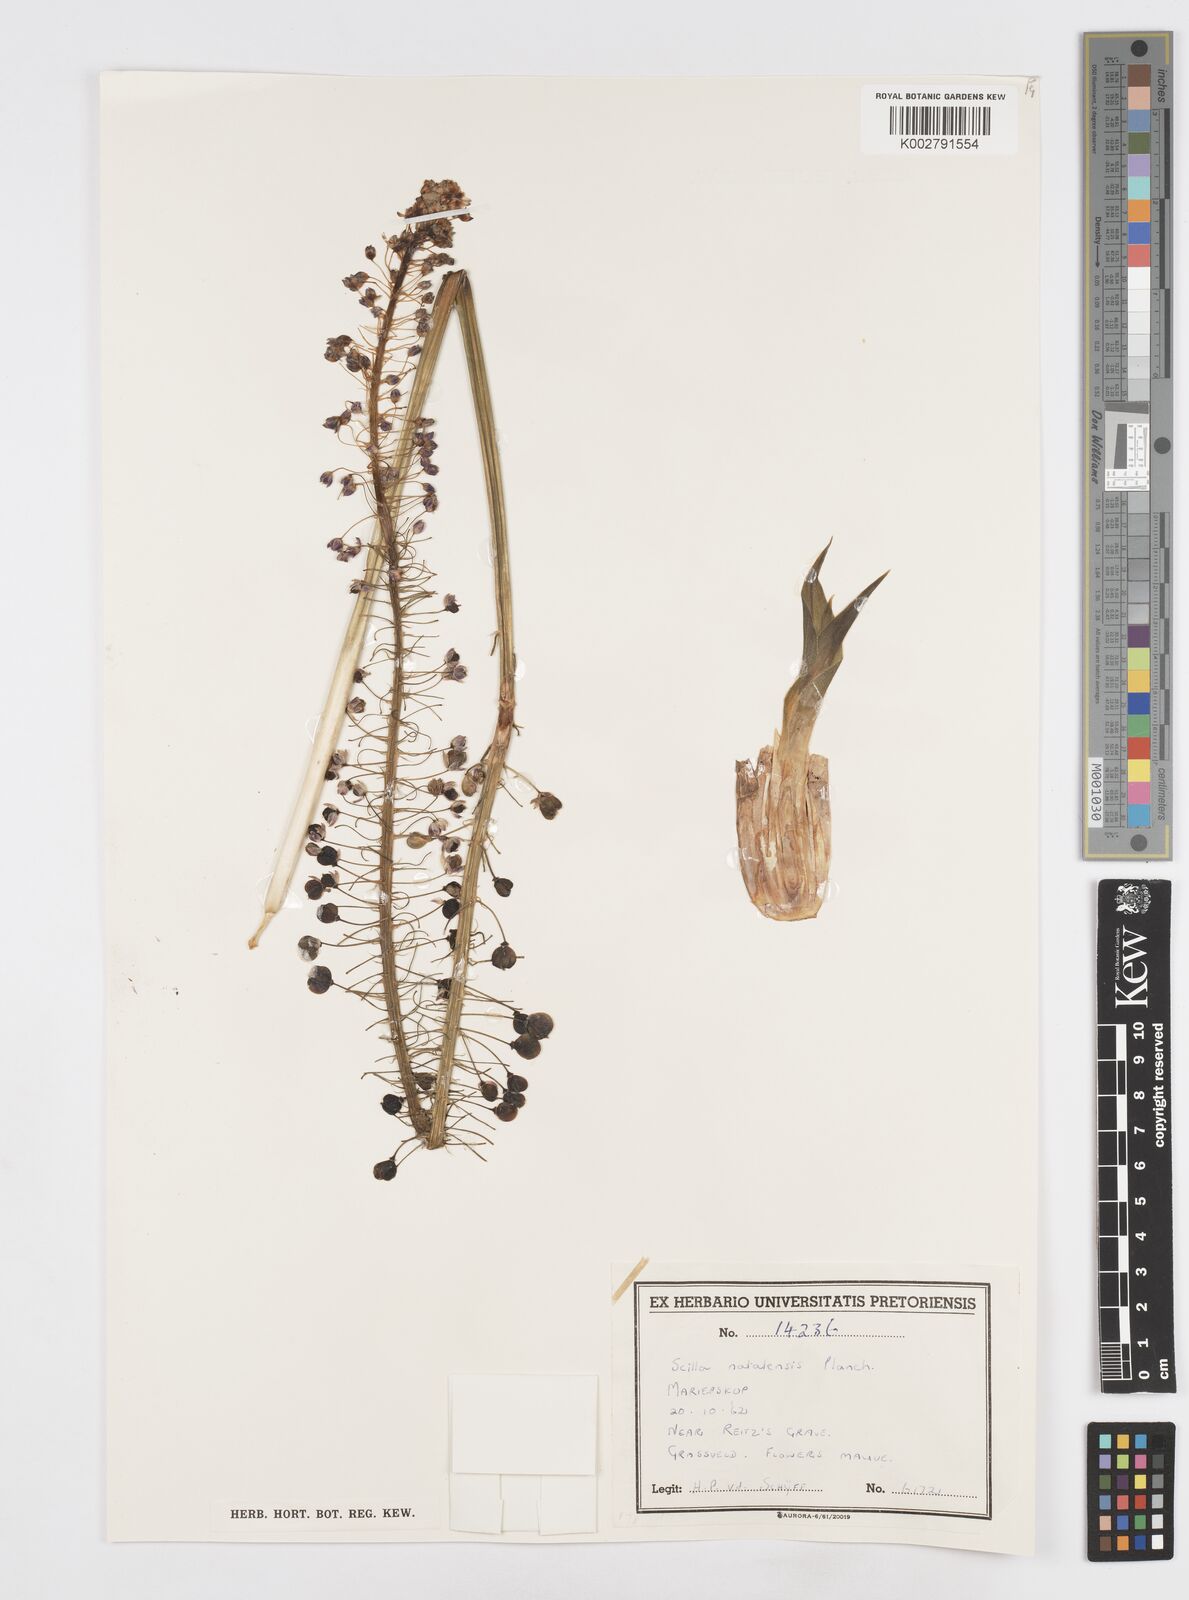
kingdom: Plantae
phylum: Tracheophyta
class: Liliopsida
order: Asparagales
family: Asparagaceae
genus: Merwilla
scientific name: Merwilla plumbea
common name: Blue-squill
